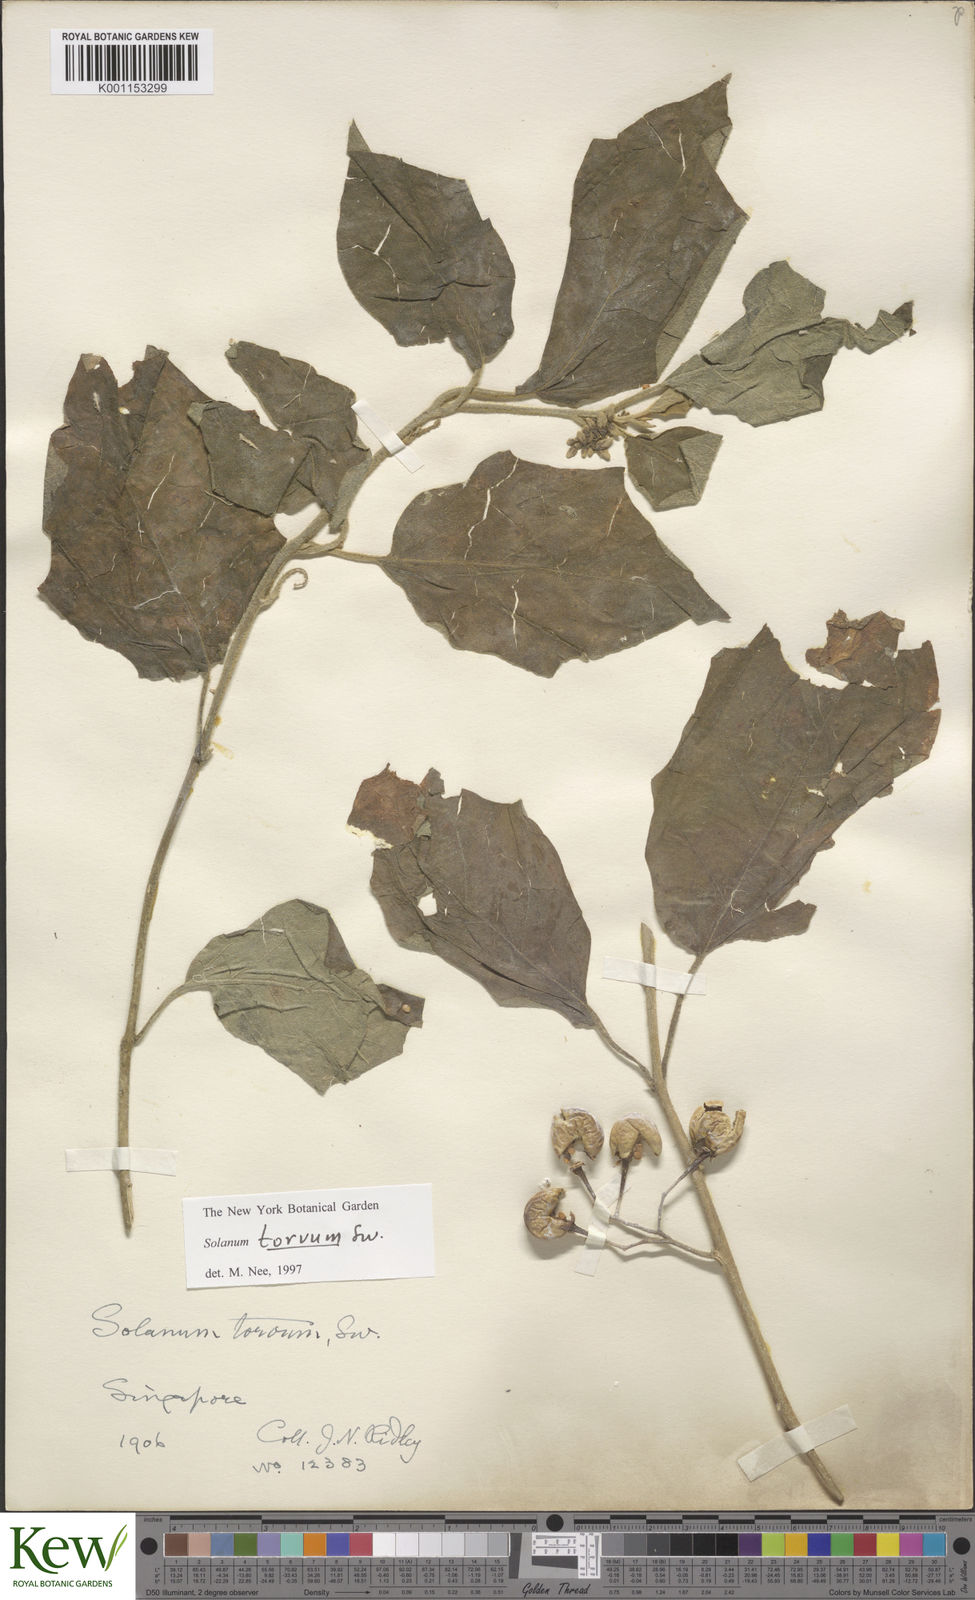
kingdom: Plantae
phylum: Tracheophyta
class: Magnoliopsida
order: Solanales
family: Solanaceae
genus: Solanum
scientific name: Solanum torvum
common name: Turkey berry
